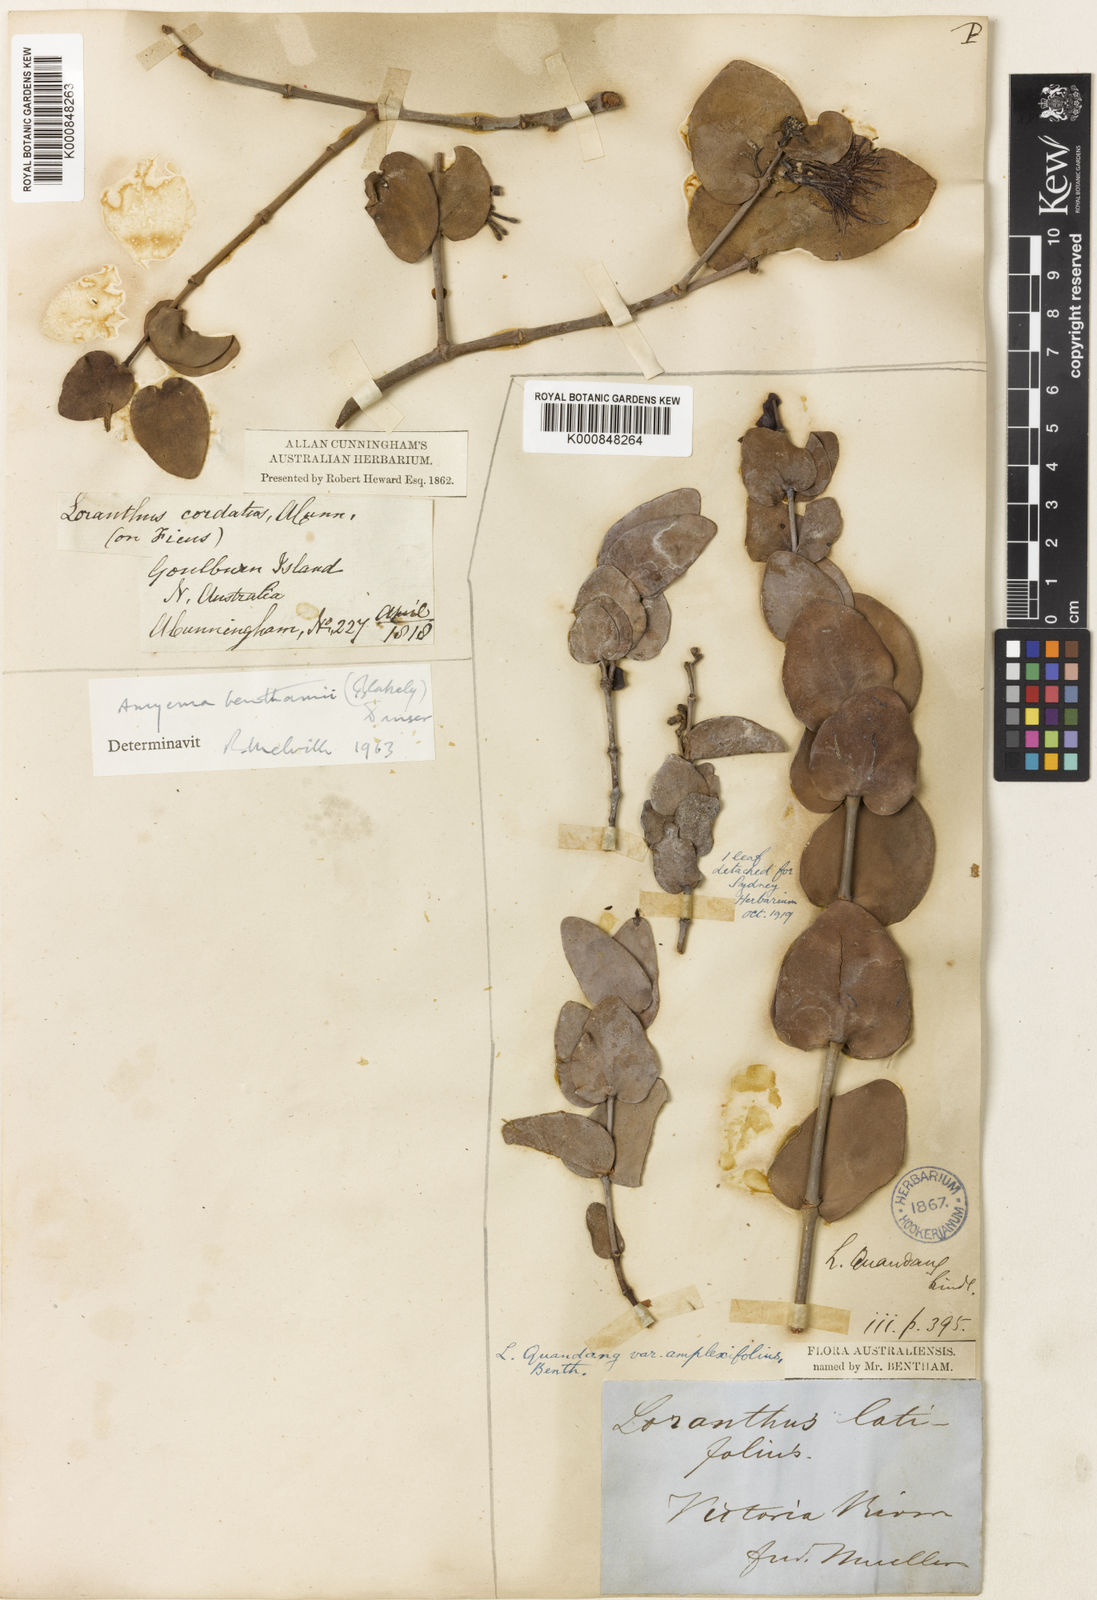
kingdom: Plantae
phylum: Tracheophyta
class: Magnoliopsida
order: Santalales
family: Loranthaceae
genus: Amyema
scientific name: Amyema benthamii
